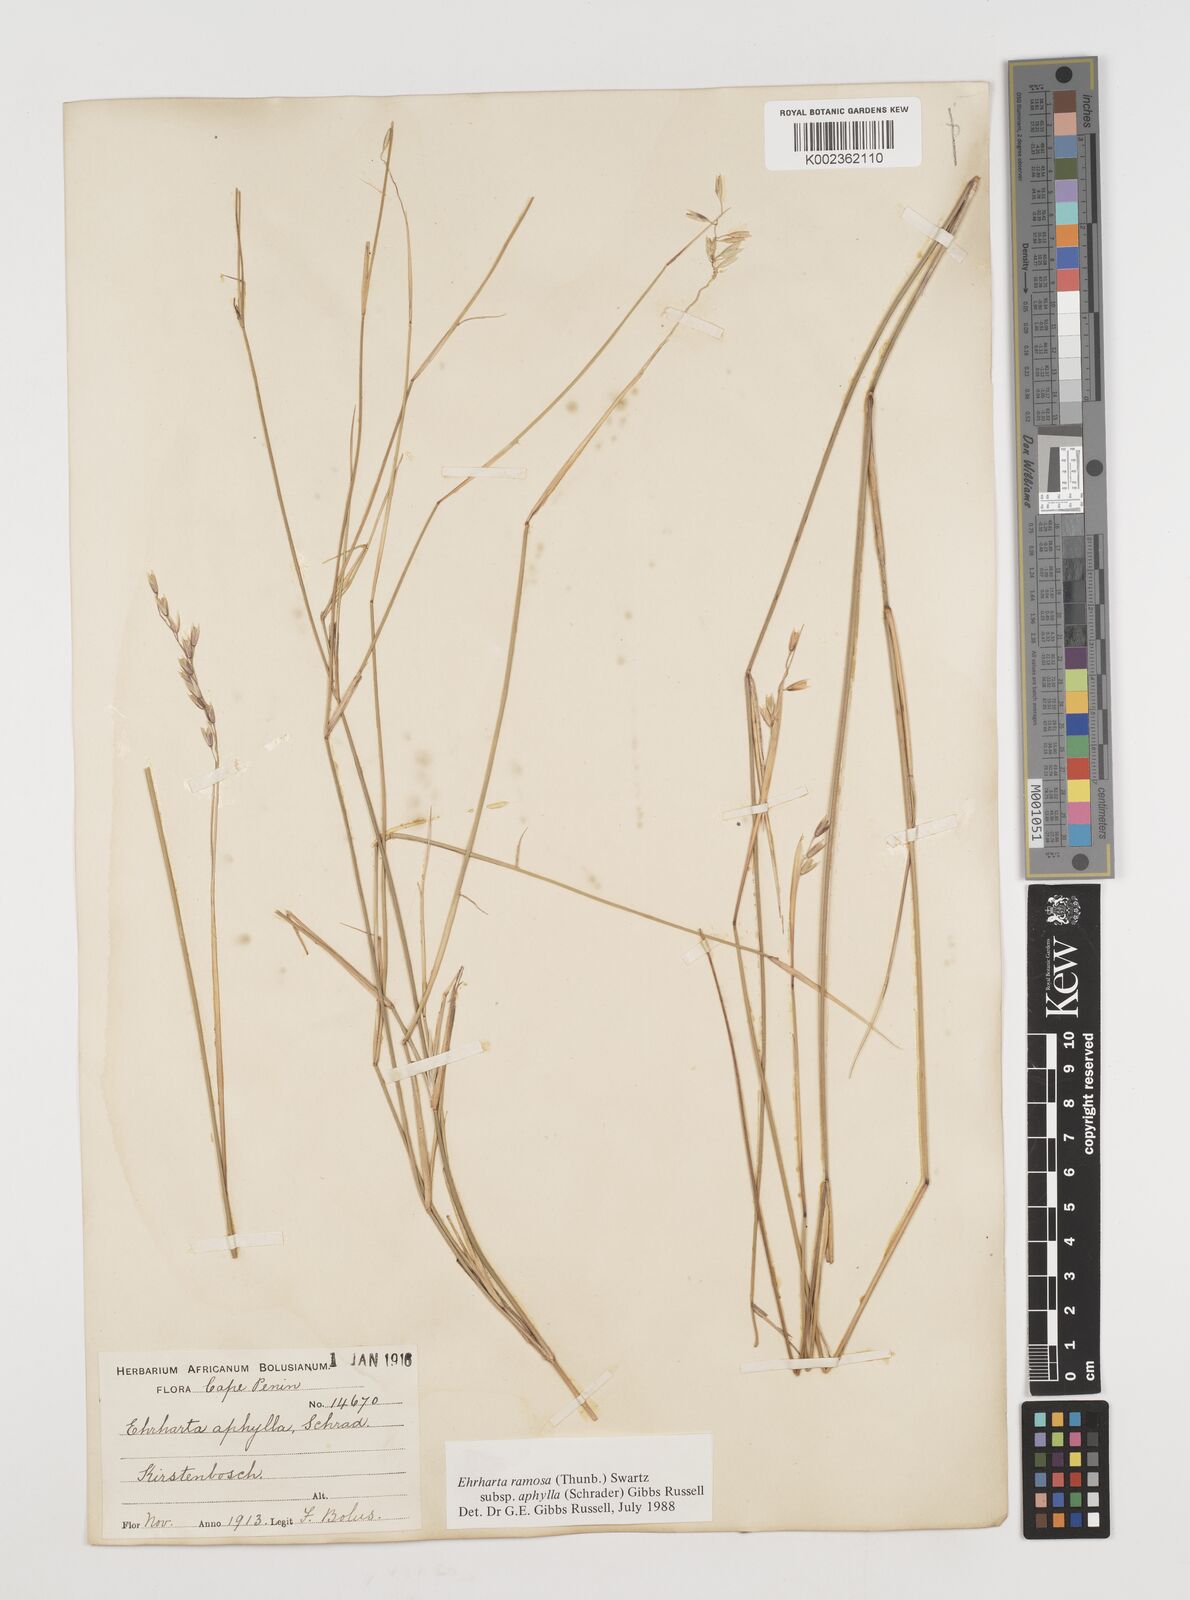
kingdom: Plantae
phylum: Tracheophyta
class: Liliopsida
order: Poales
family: Poaceae
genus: Ehrharta
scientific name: Ehrharta digyna
